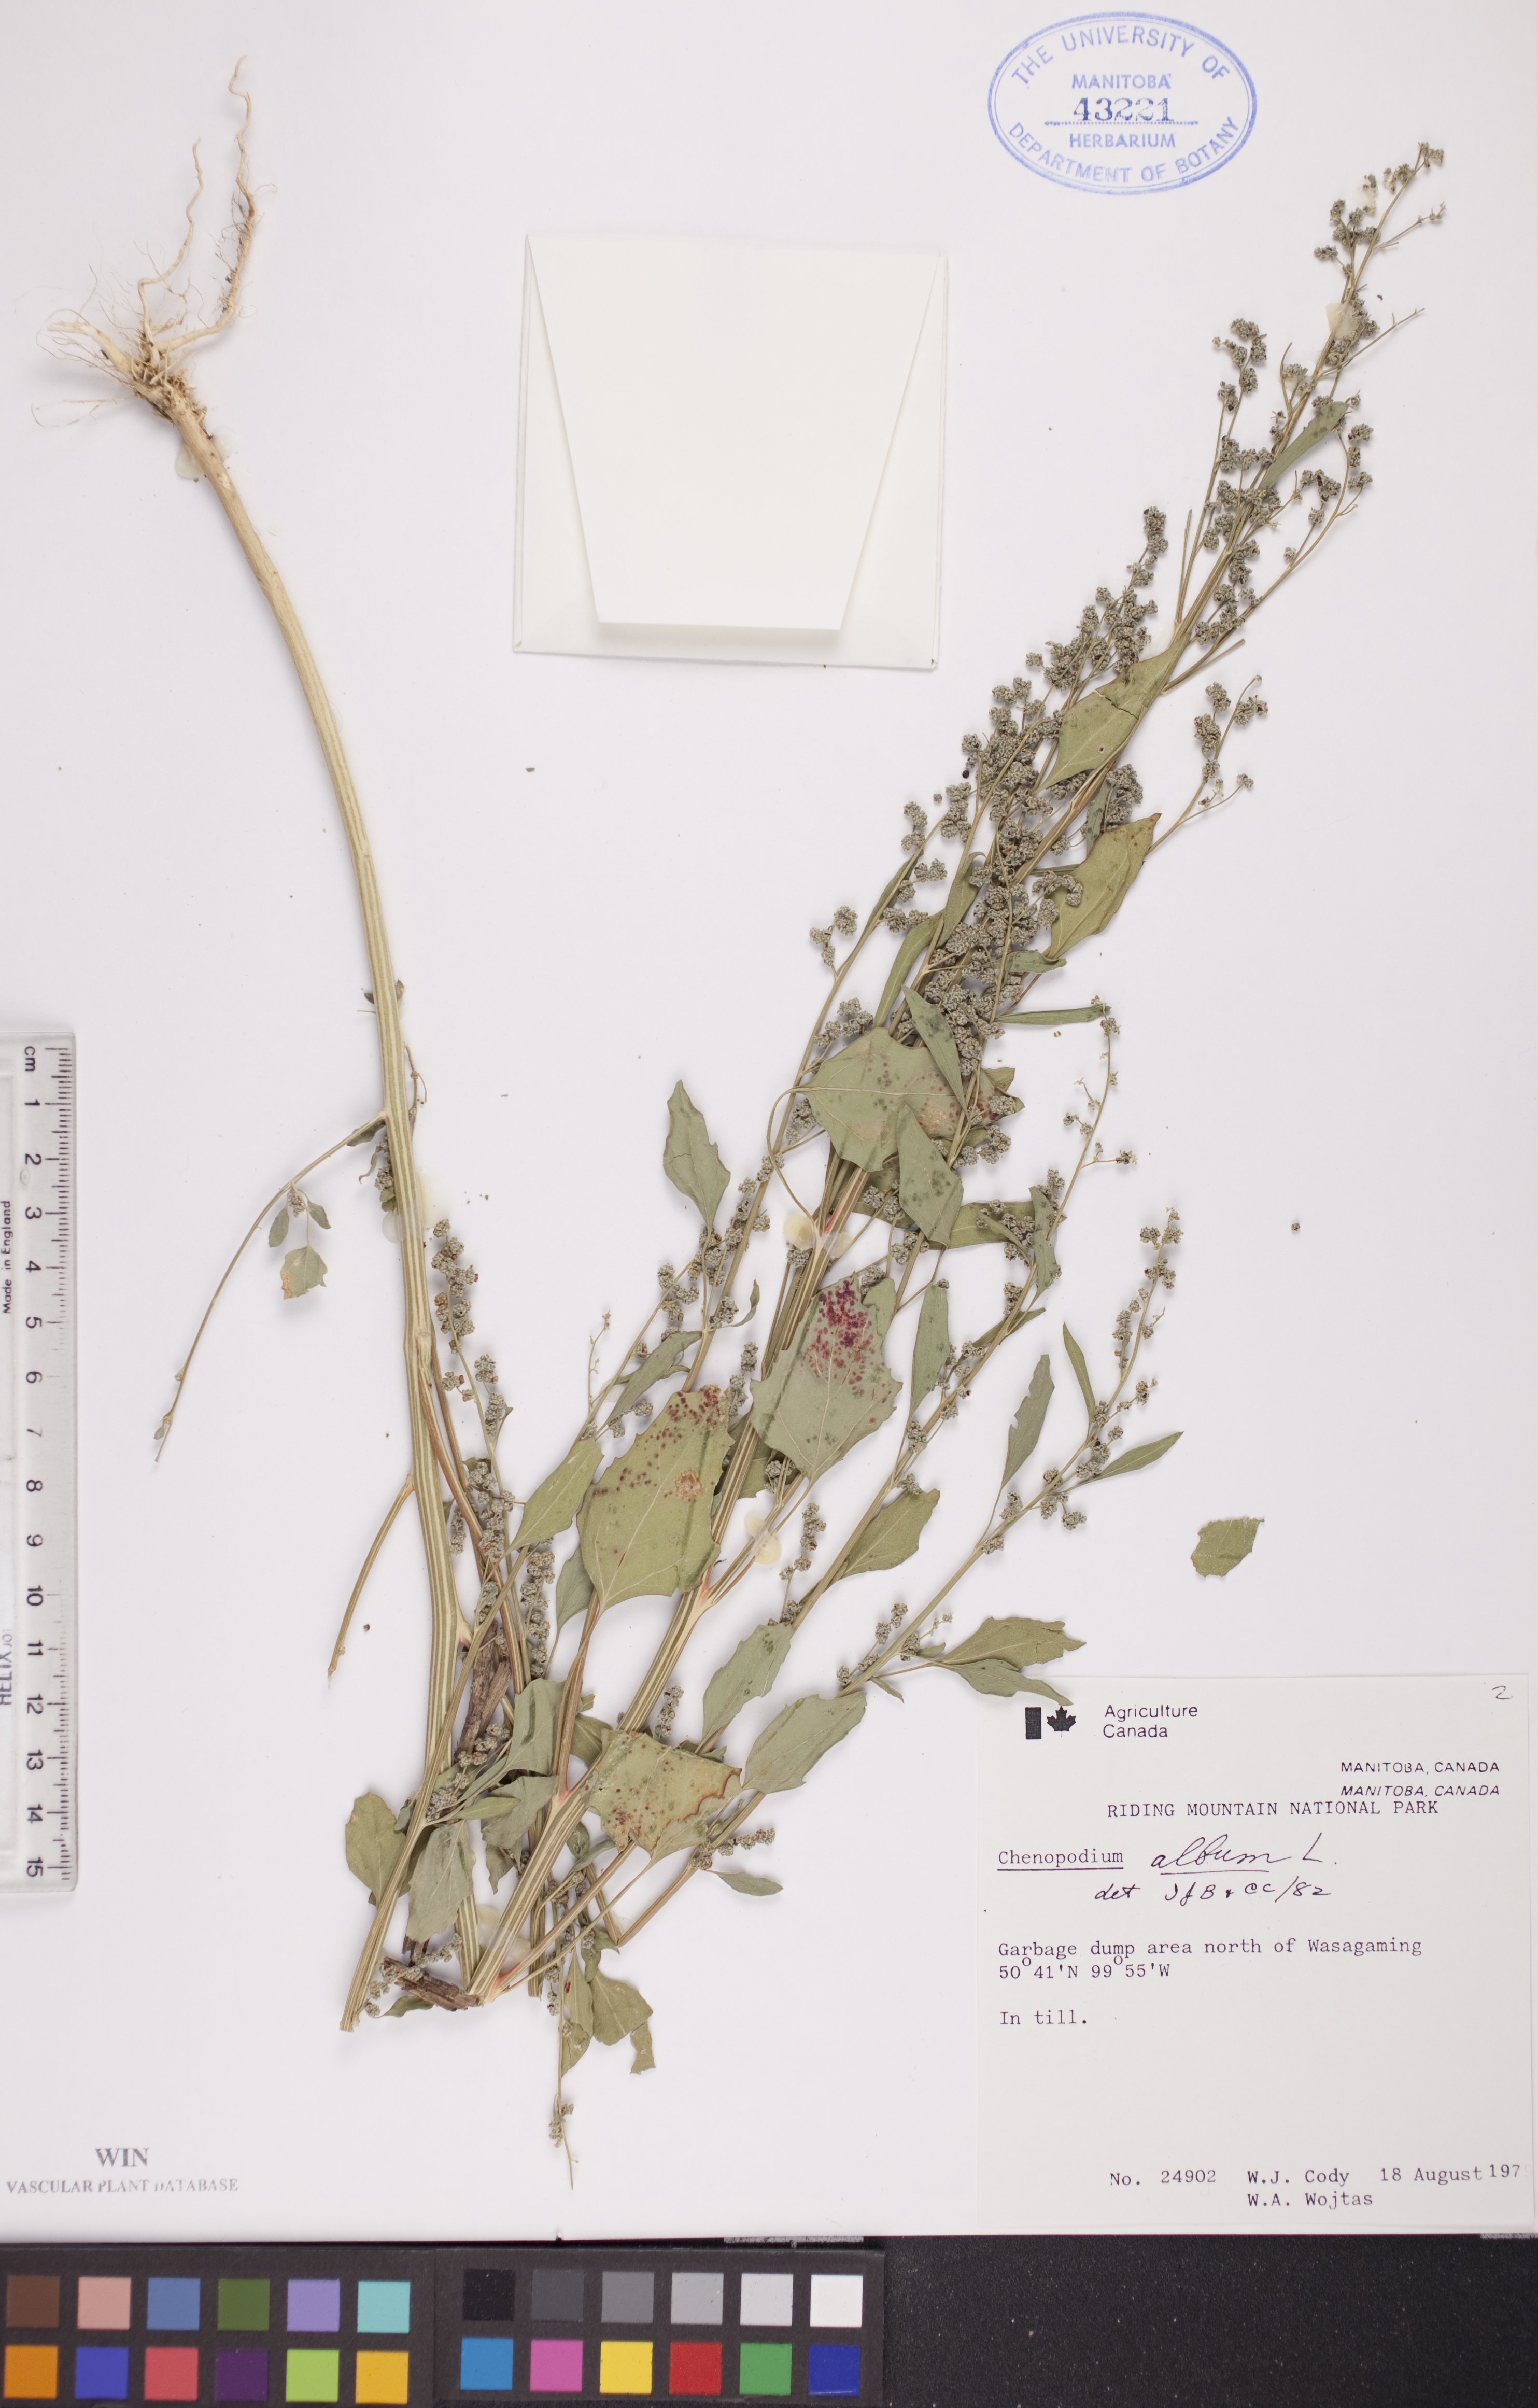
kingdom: Plantae
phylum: Tracheophyta
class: Magnoliopsida
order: Caryophyllales
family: Amaranthaceae
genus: Chenopodium
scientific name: Chenopodium album
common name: Fat-hen
